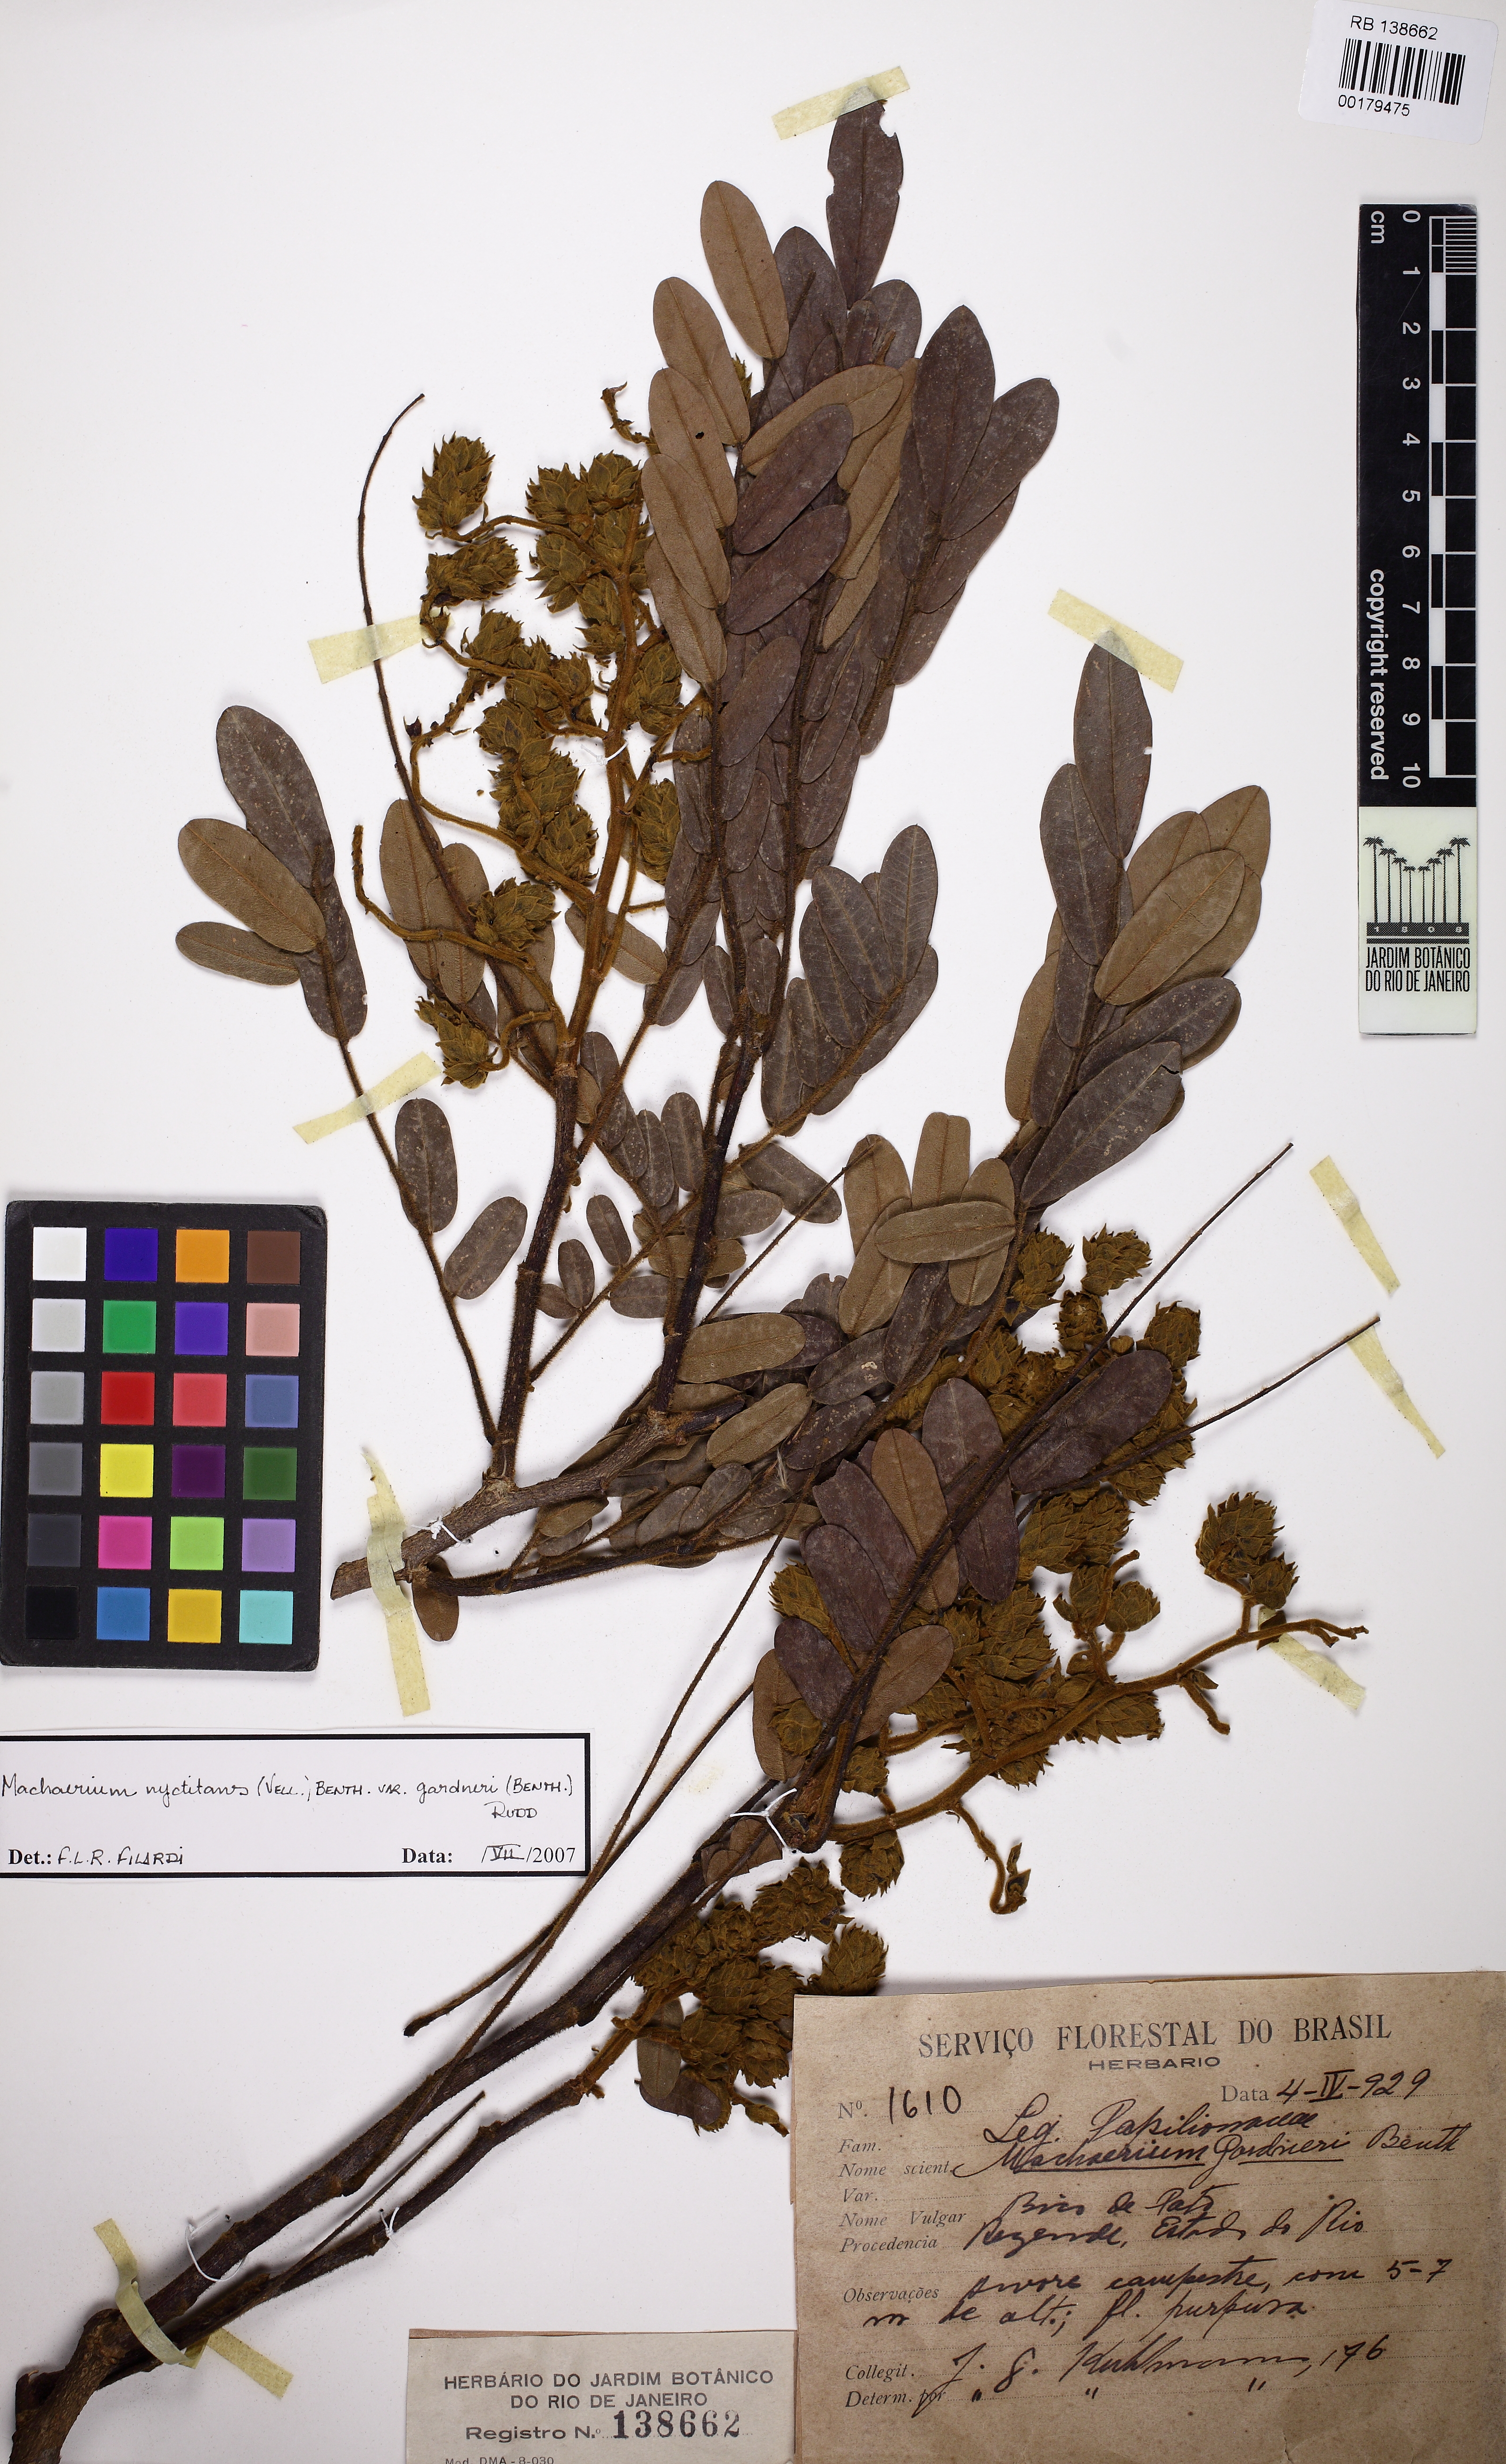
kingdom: Plantae
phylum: Tracheophyta
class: Magnoliopsida
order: Fabales
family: Fabaceae
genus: Machaerium
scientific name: Machaerium nyctitans
